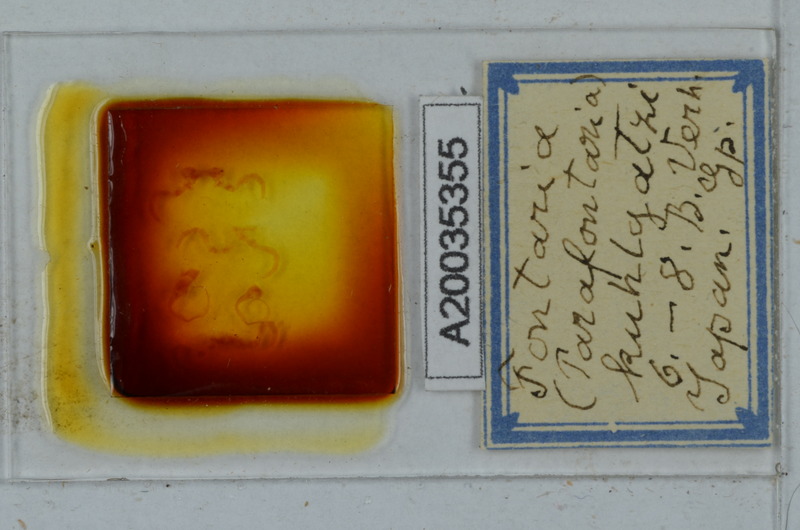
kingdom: Animalia
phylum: Arthropoda
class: Diplopoda
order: Polydesmida
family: Xystodesmidae
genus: Parafontaria
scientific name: Parafontaria tonominea
